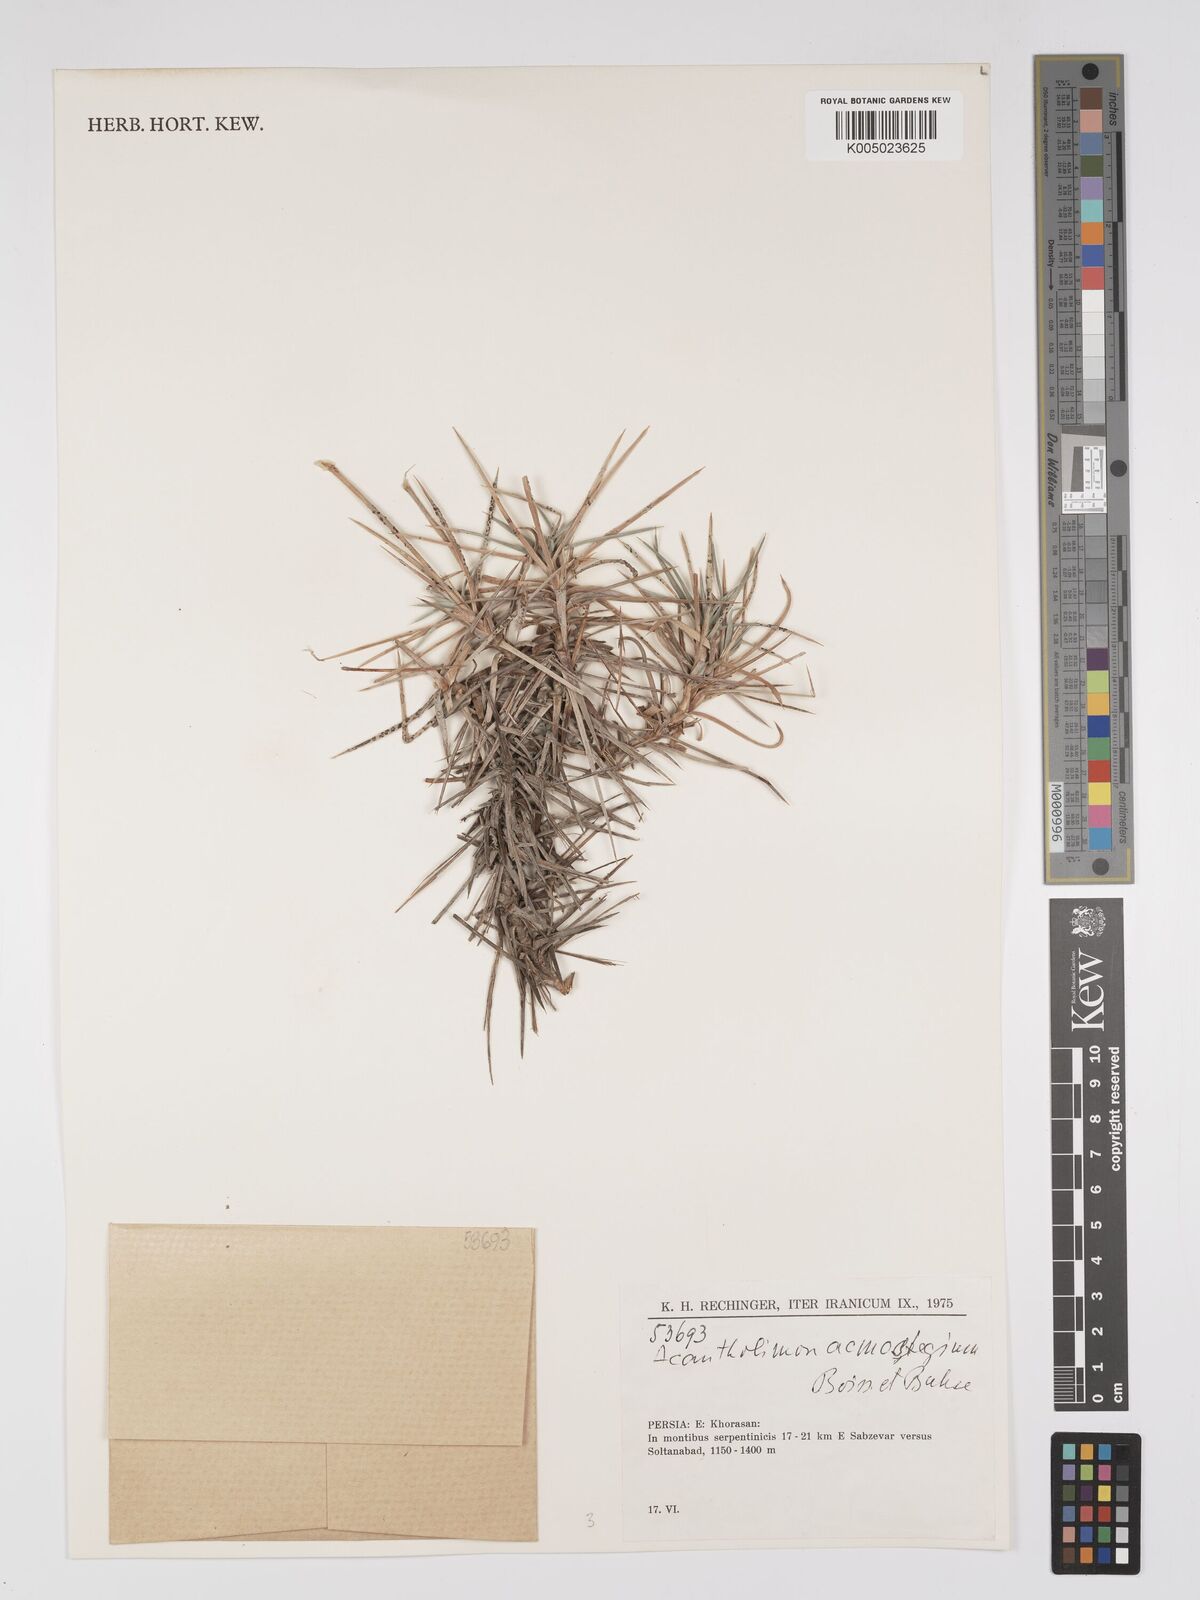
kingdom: Plantae
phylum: Tracheophyta
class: Magnoliopsida
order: Caryophyllales
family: Plumbaginaceae
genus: Acantholimon
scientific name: Acantholimon acmostegium
